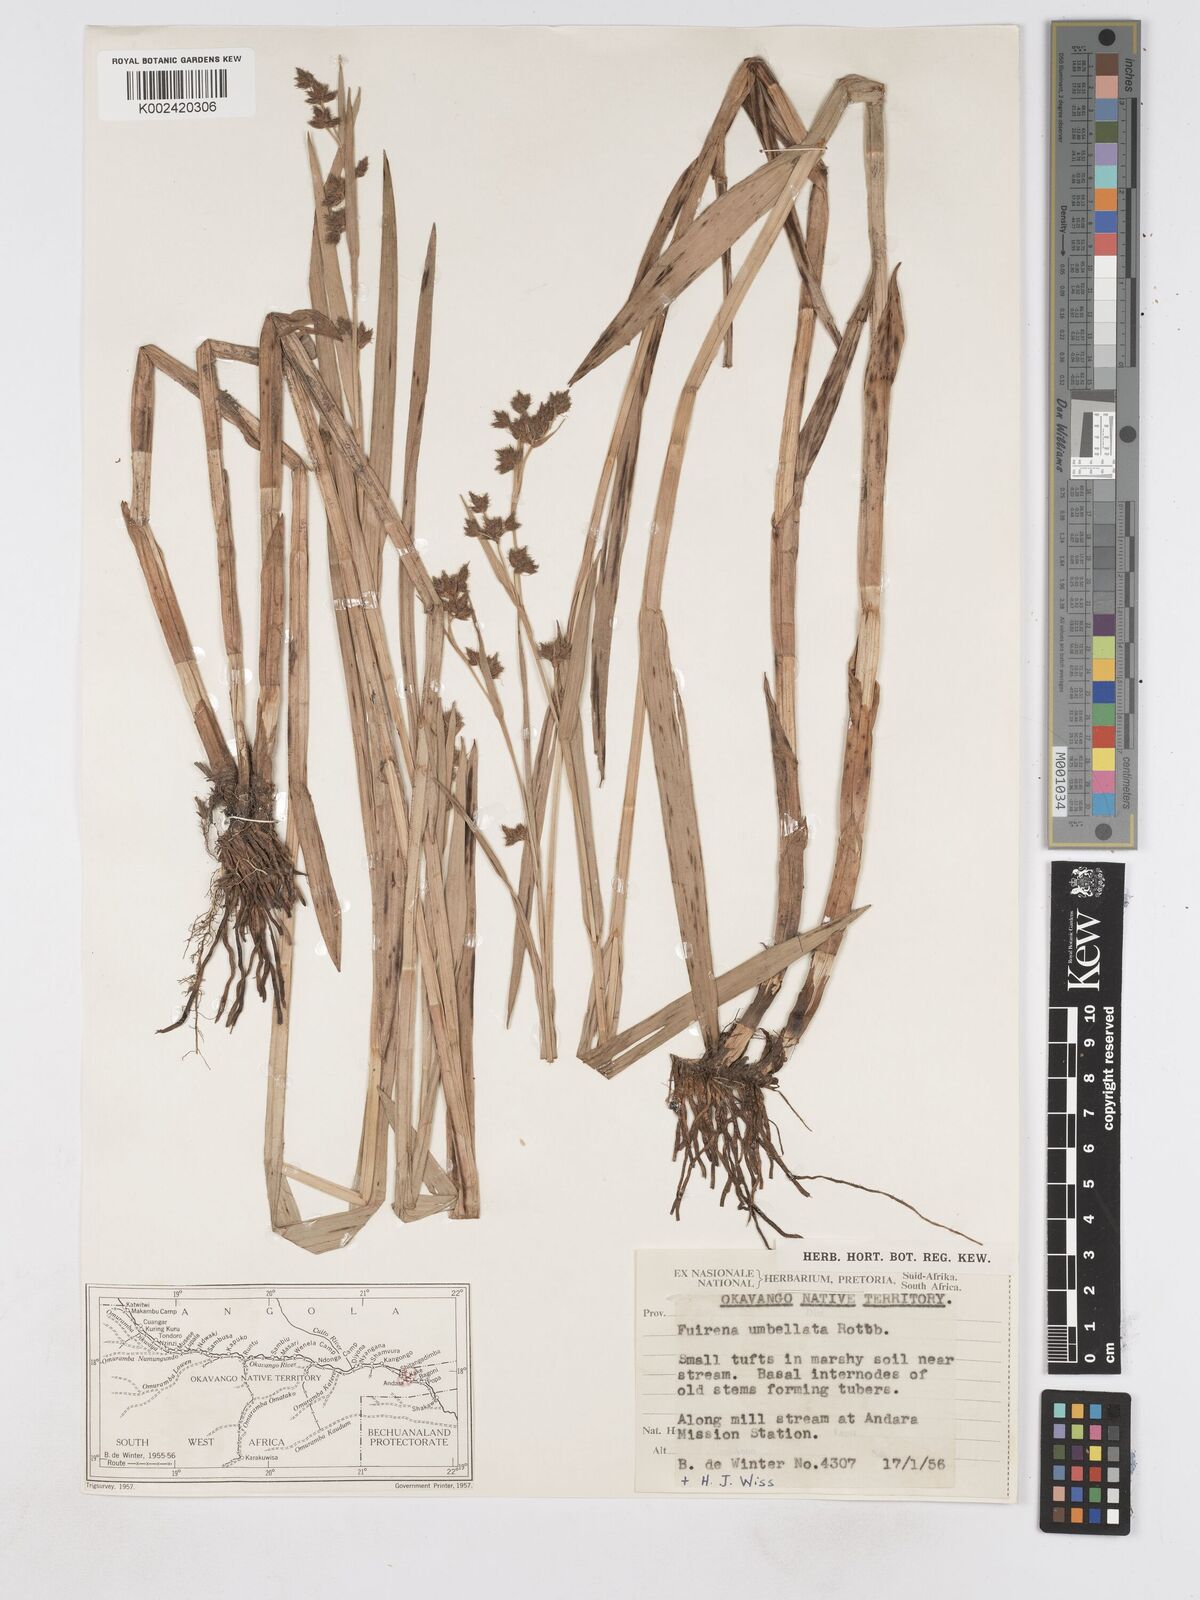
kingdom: Plantae
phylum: Tracheophyta
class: Liliopsida
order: Poales
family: Cyperaceae
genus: Fuirena
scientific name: Fuirena umbellata
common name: Yefen
